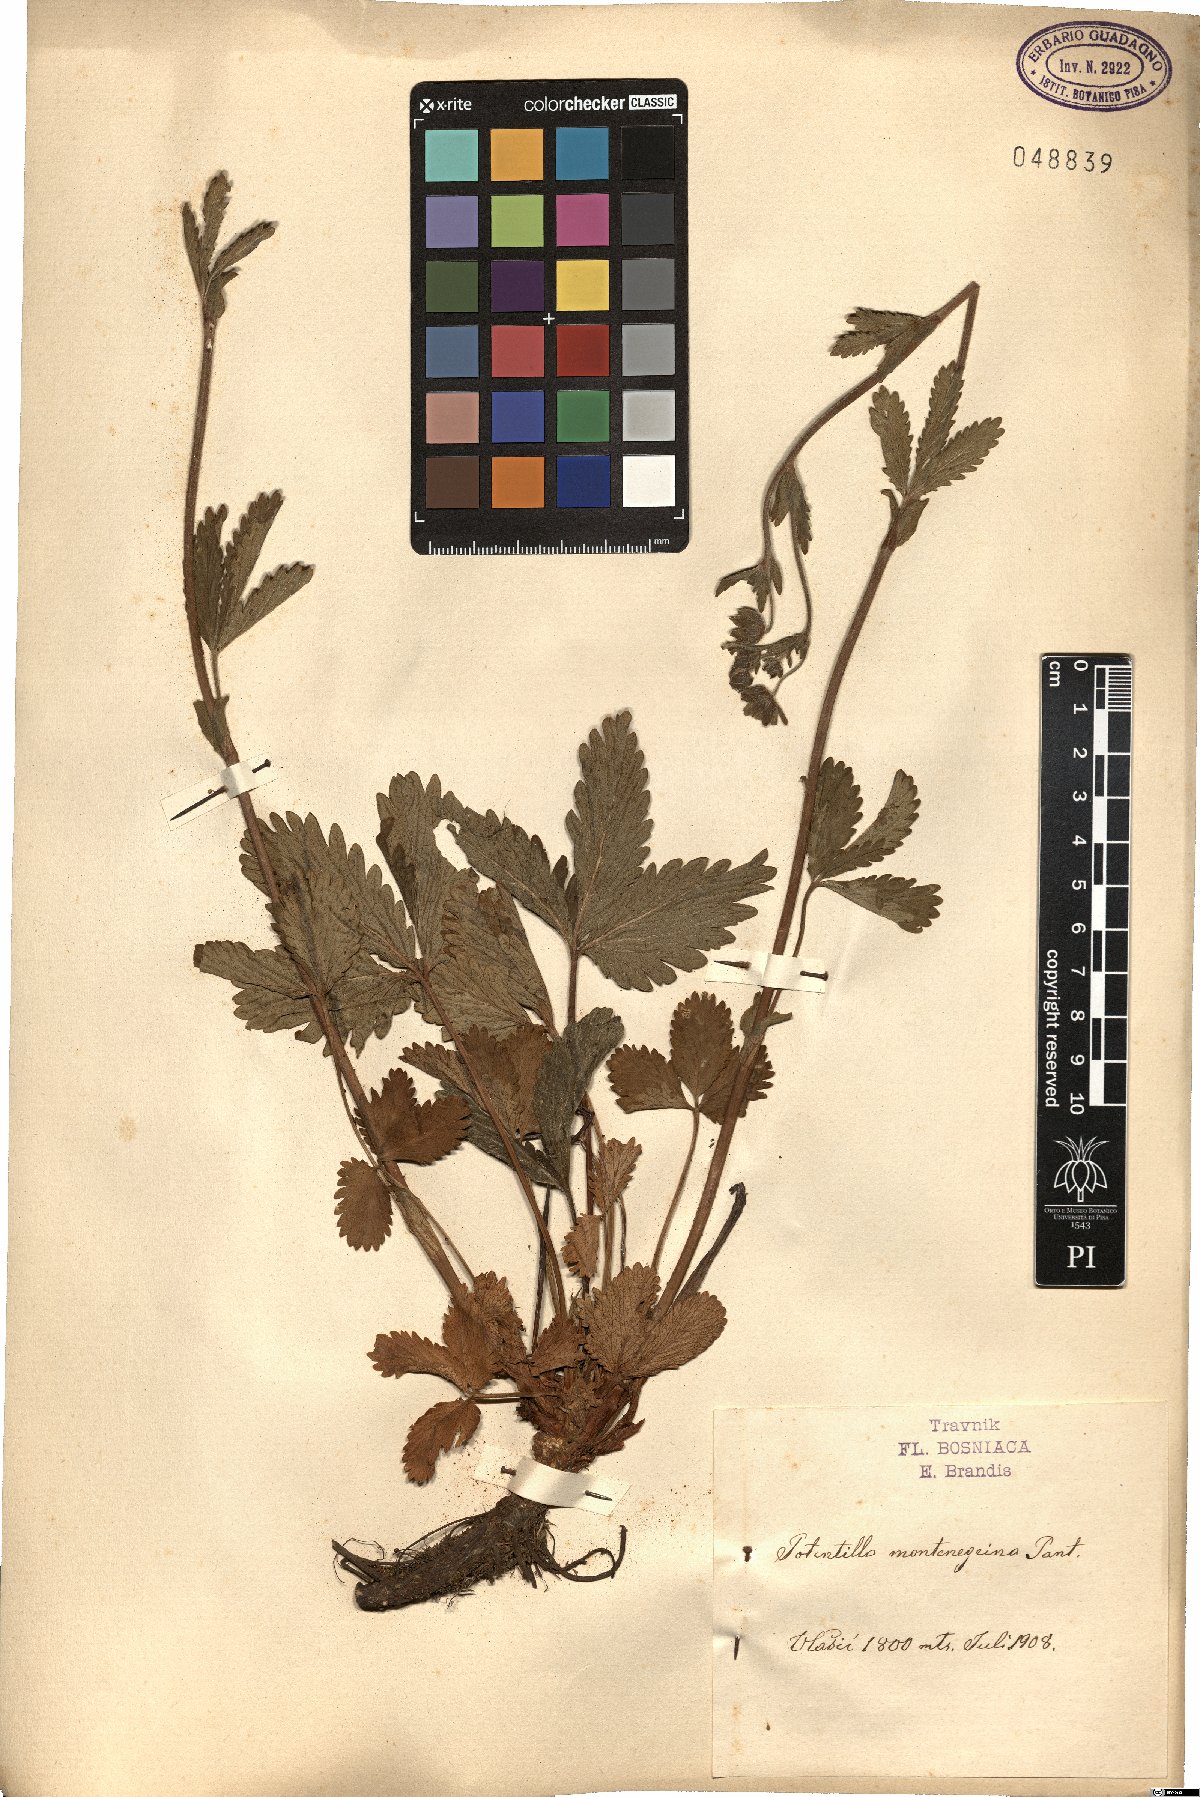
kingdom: Plantae
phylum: Tracheophyta
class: Magnoliopsida
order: Rosales
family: Rosaceae
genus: Potentilla
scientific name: Potentilla montenegrina
